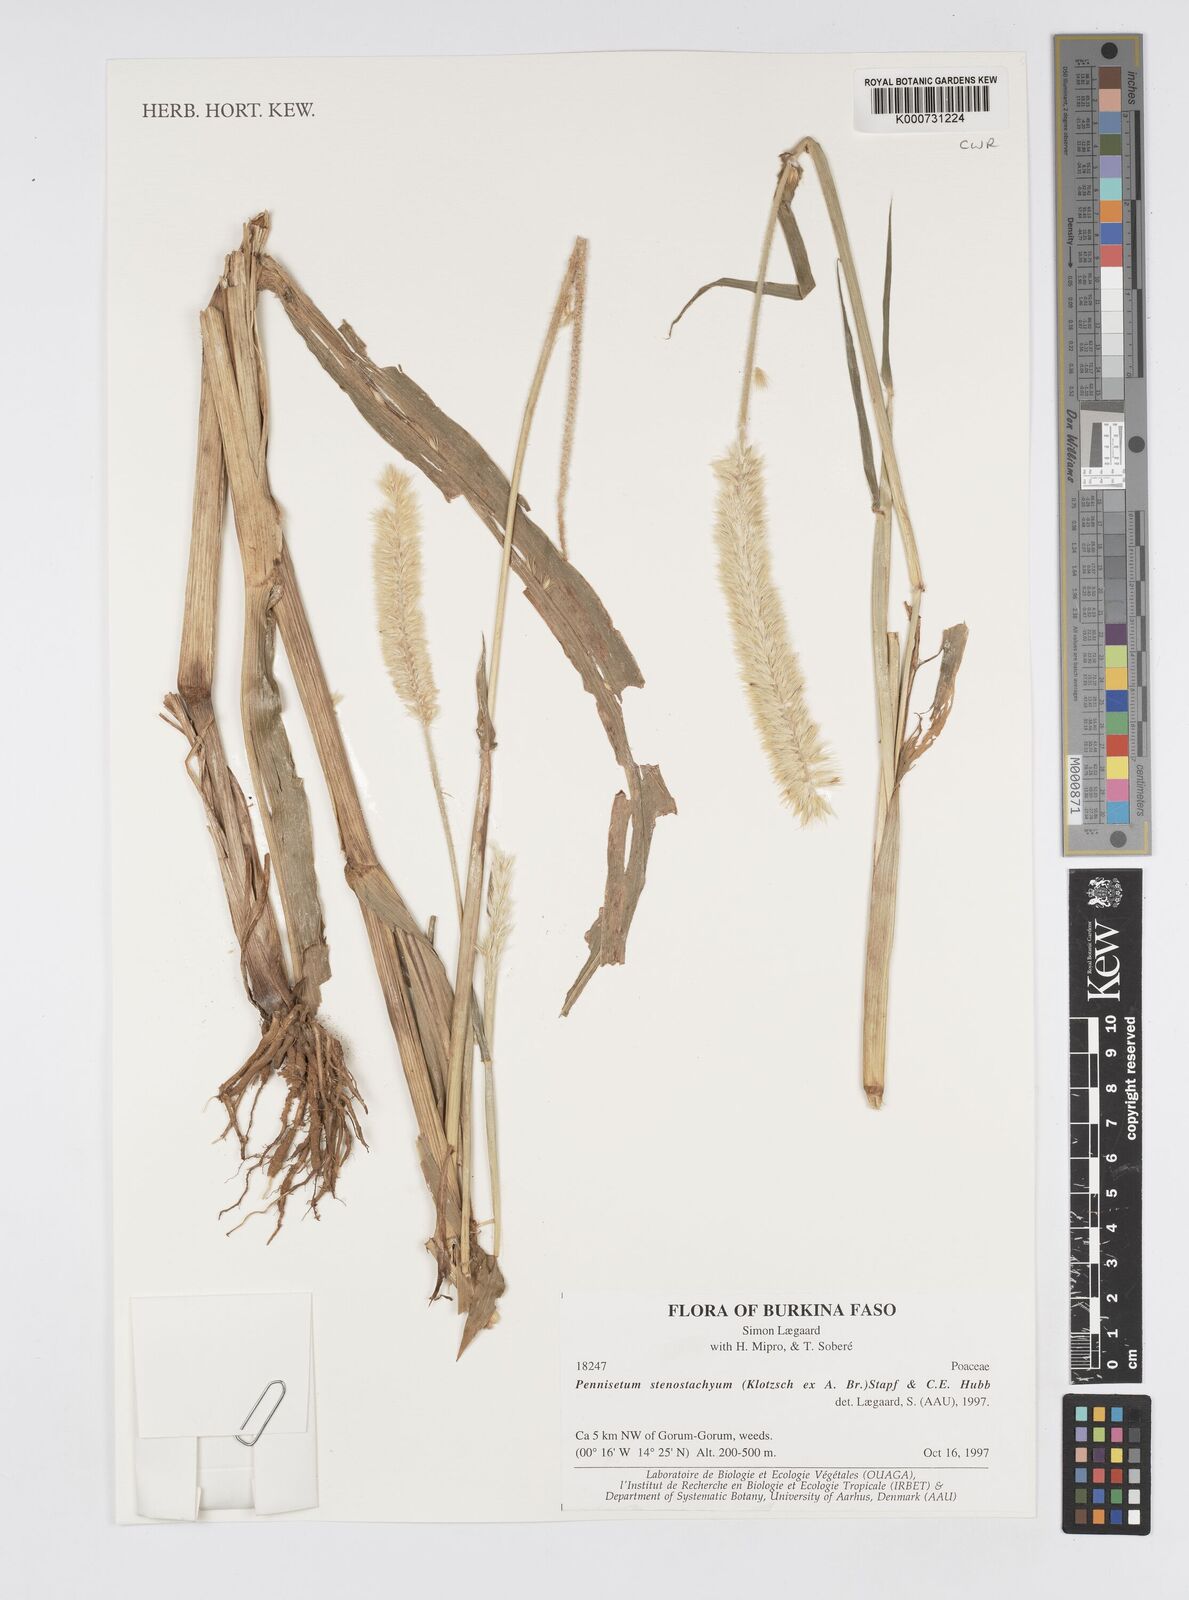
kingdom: Plantae
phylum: Tracheophyta
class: Liliopsida
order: Poales
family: Poaceae
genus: Cenchrus
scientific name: Cenchrus sieberianus
